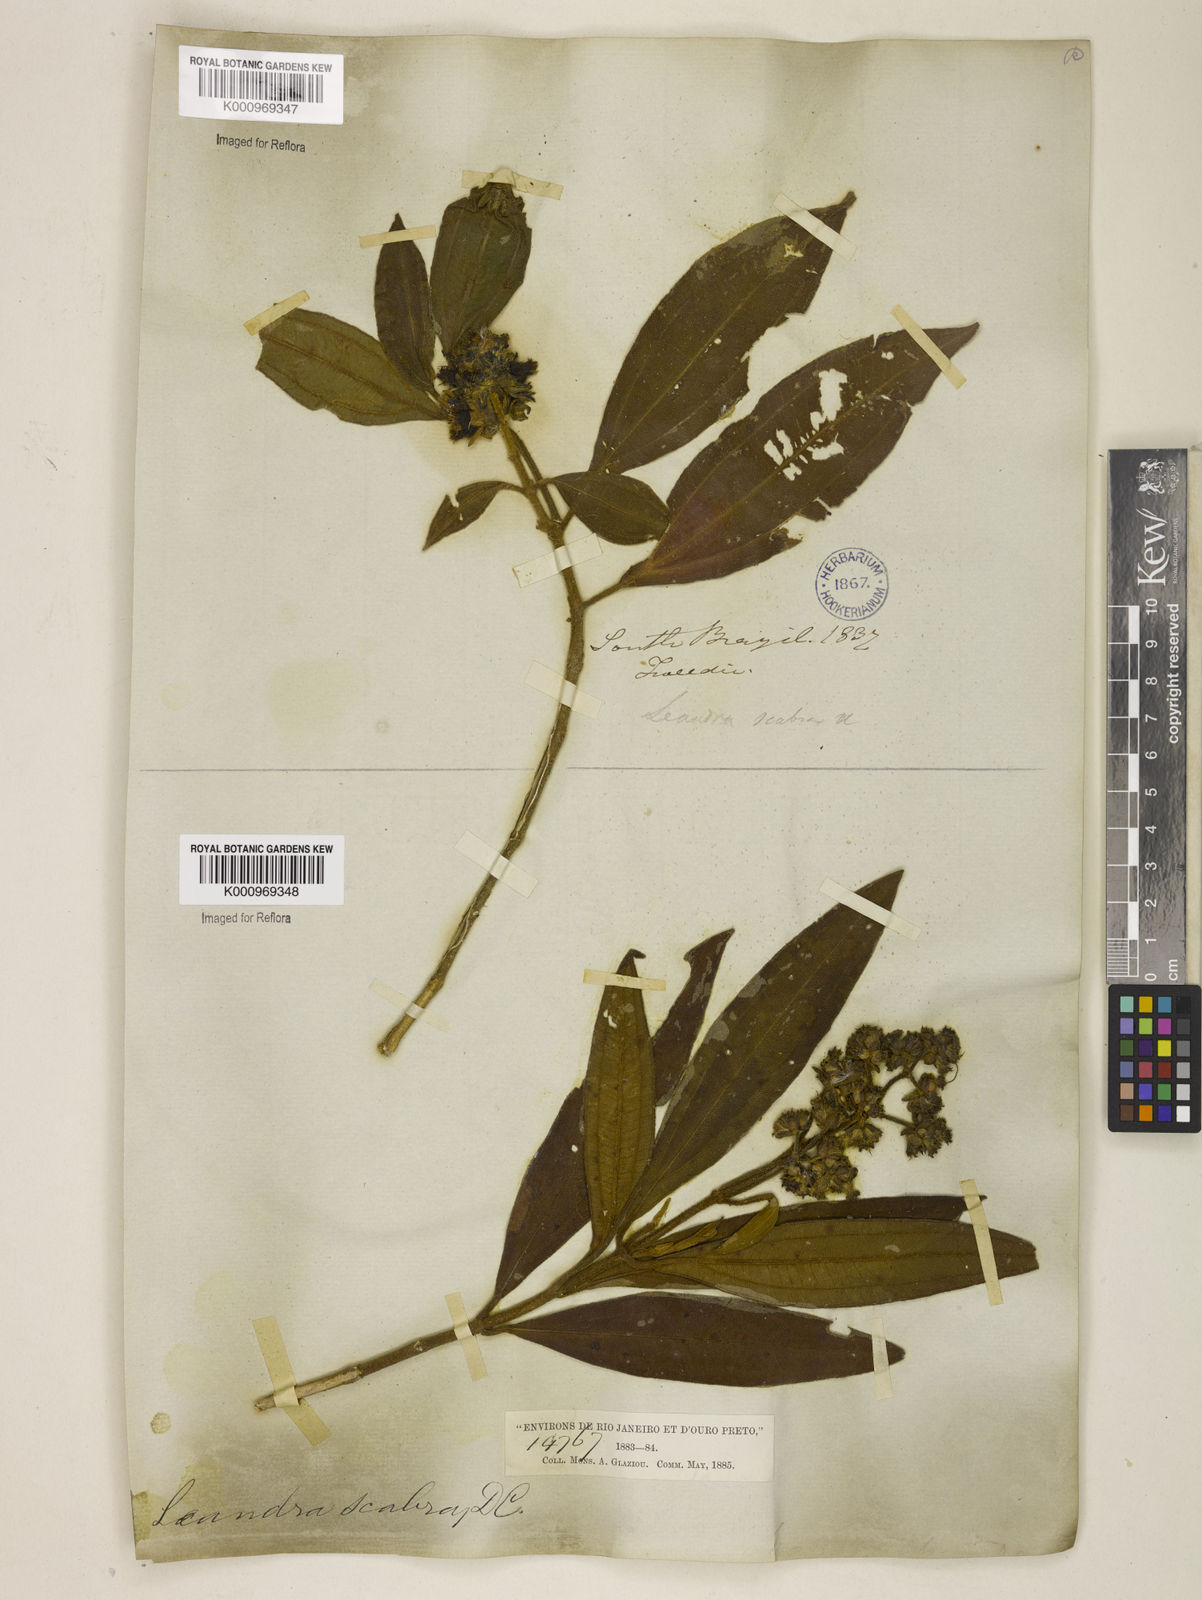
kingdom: Plantae
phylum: Tracheophyta
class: Magnoliopsida
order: Myrtales
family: Melastomataceae
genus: Miconia
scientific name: Miconia melastomoides
